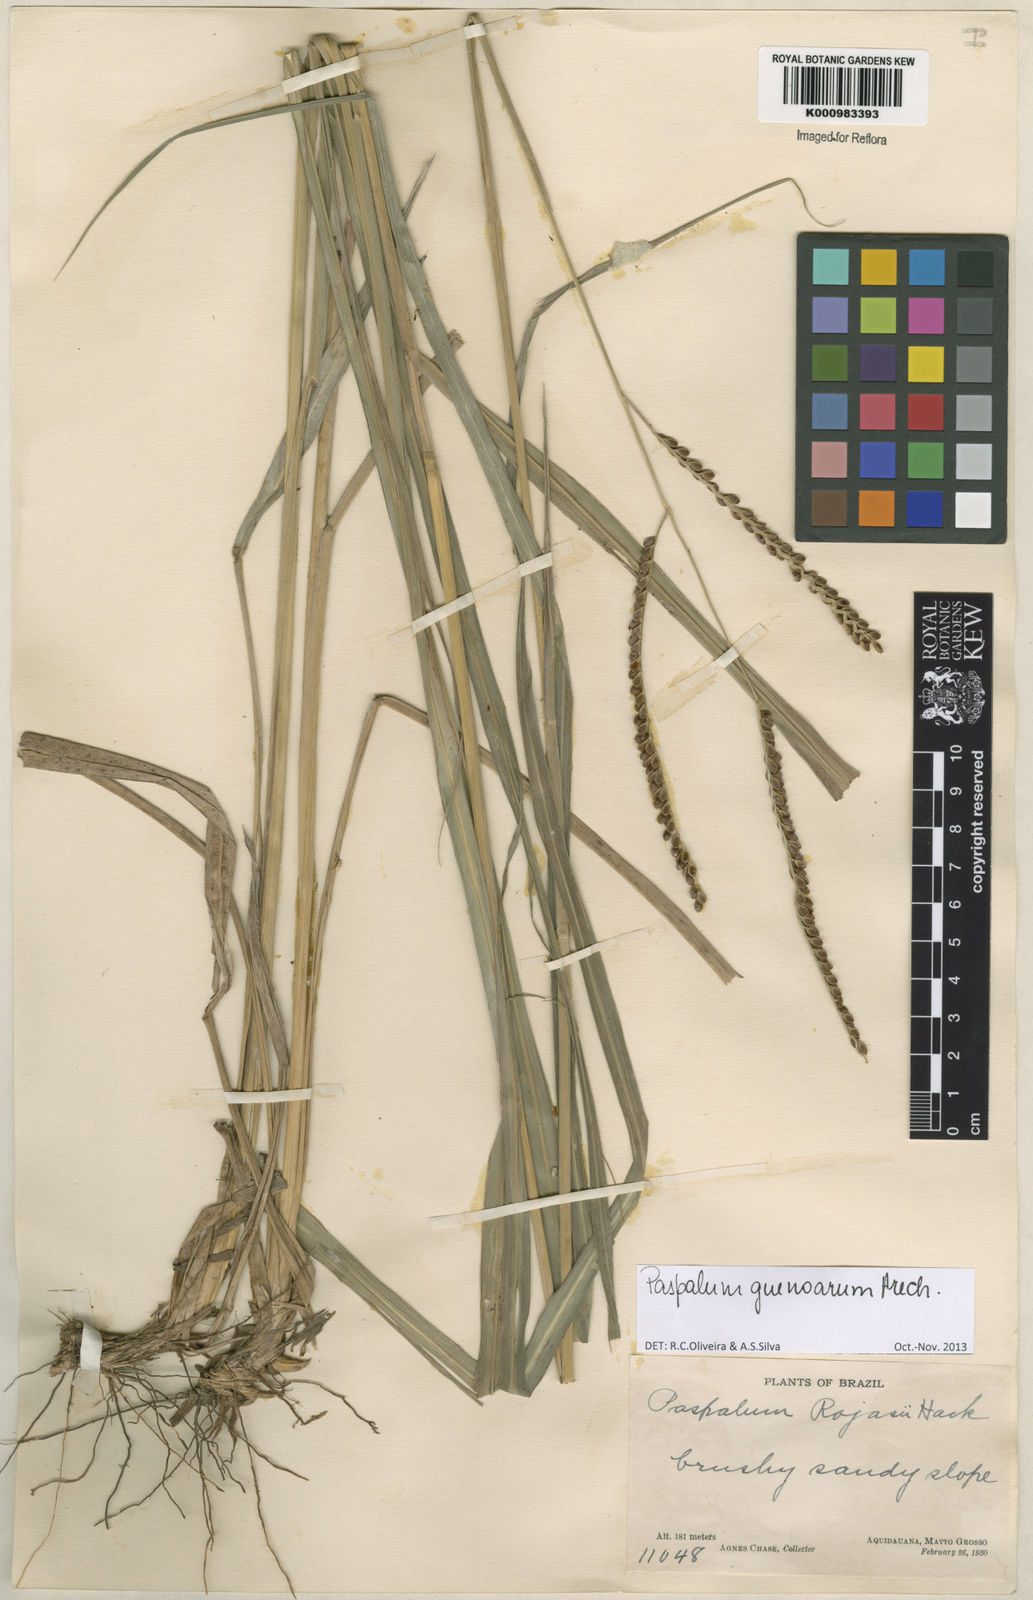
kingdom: Plantae
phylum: Tracheophyta
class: Liliopsida
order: Poales
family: Poaceae
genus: Paspalum
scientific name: Paspalum guenoarum
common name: Wintergreen paspalum
